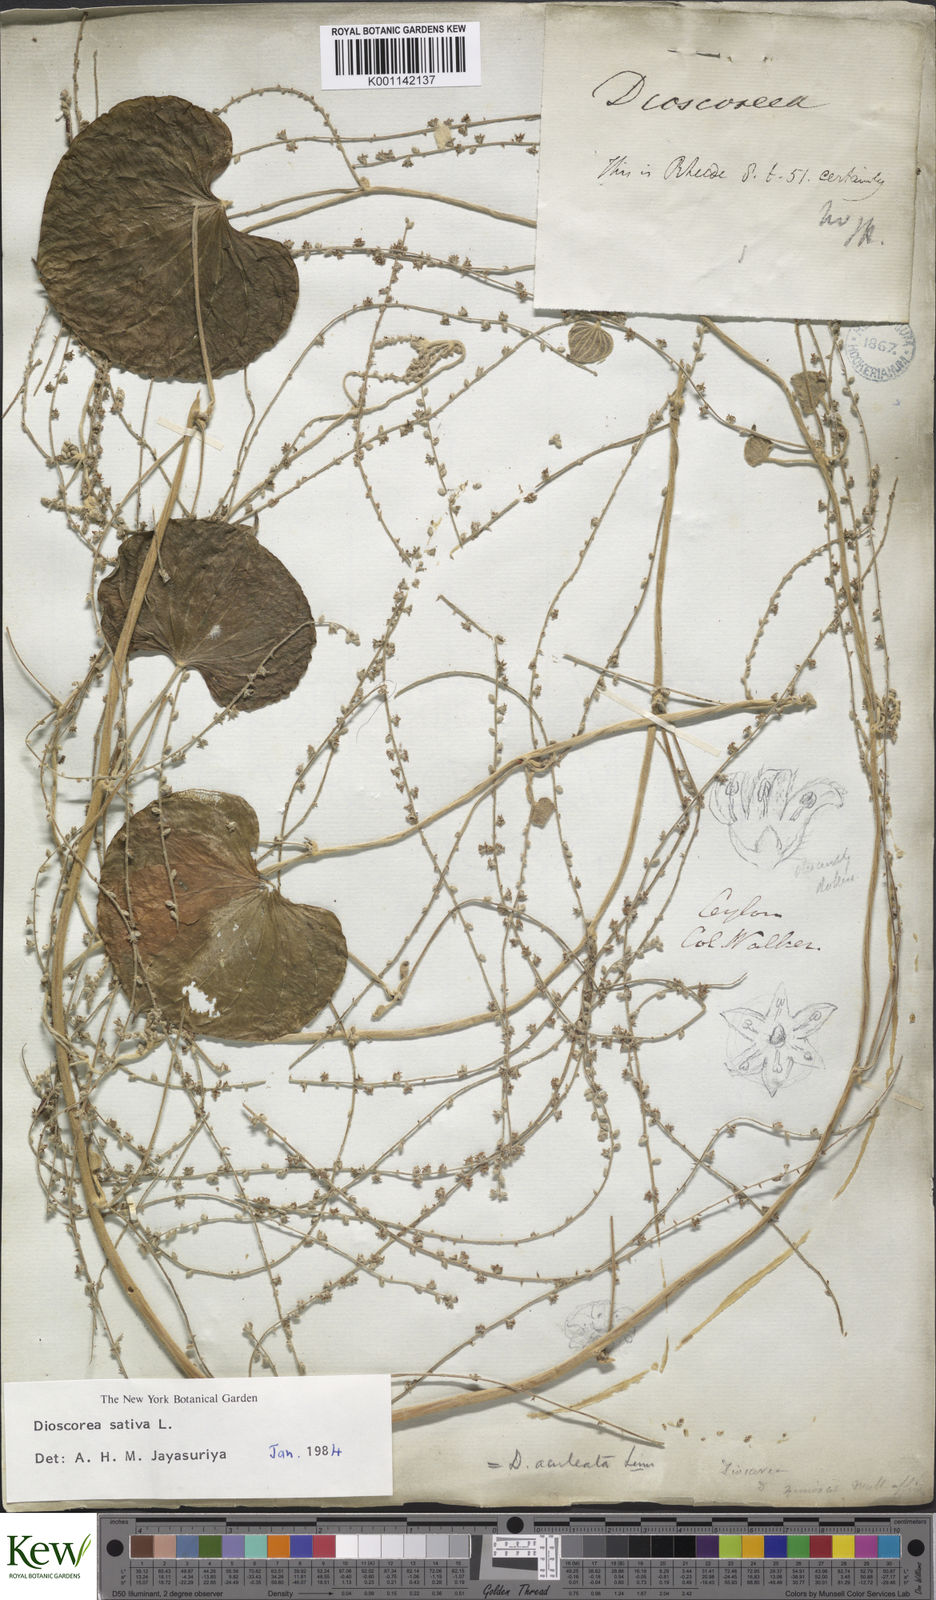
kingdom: Plantae
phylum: Tracheophyta
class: Liliopsida
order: Dioscoreales
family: Dioscoreaceae
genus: Dioscorea
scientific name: Dioscorea esculenta
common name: Chinese yam
